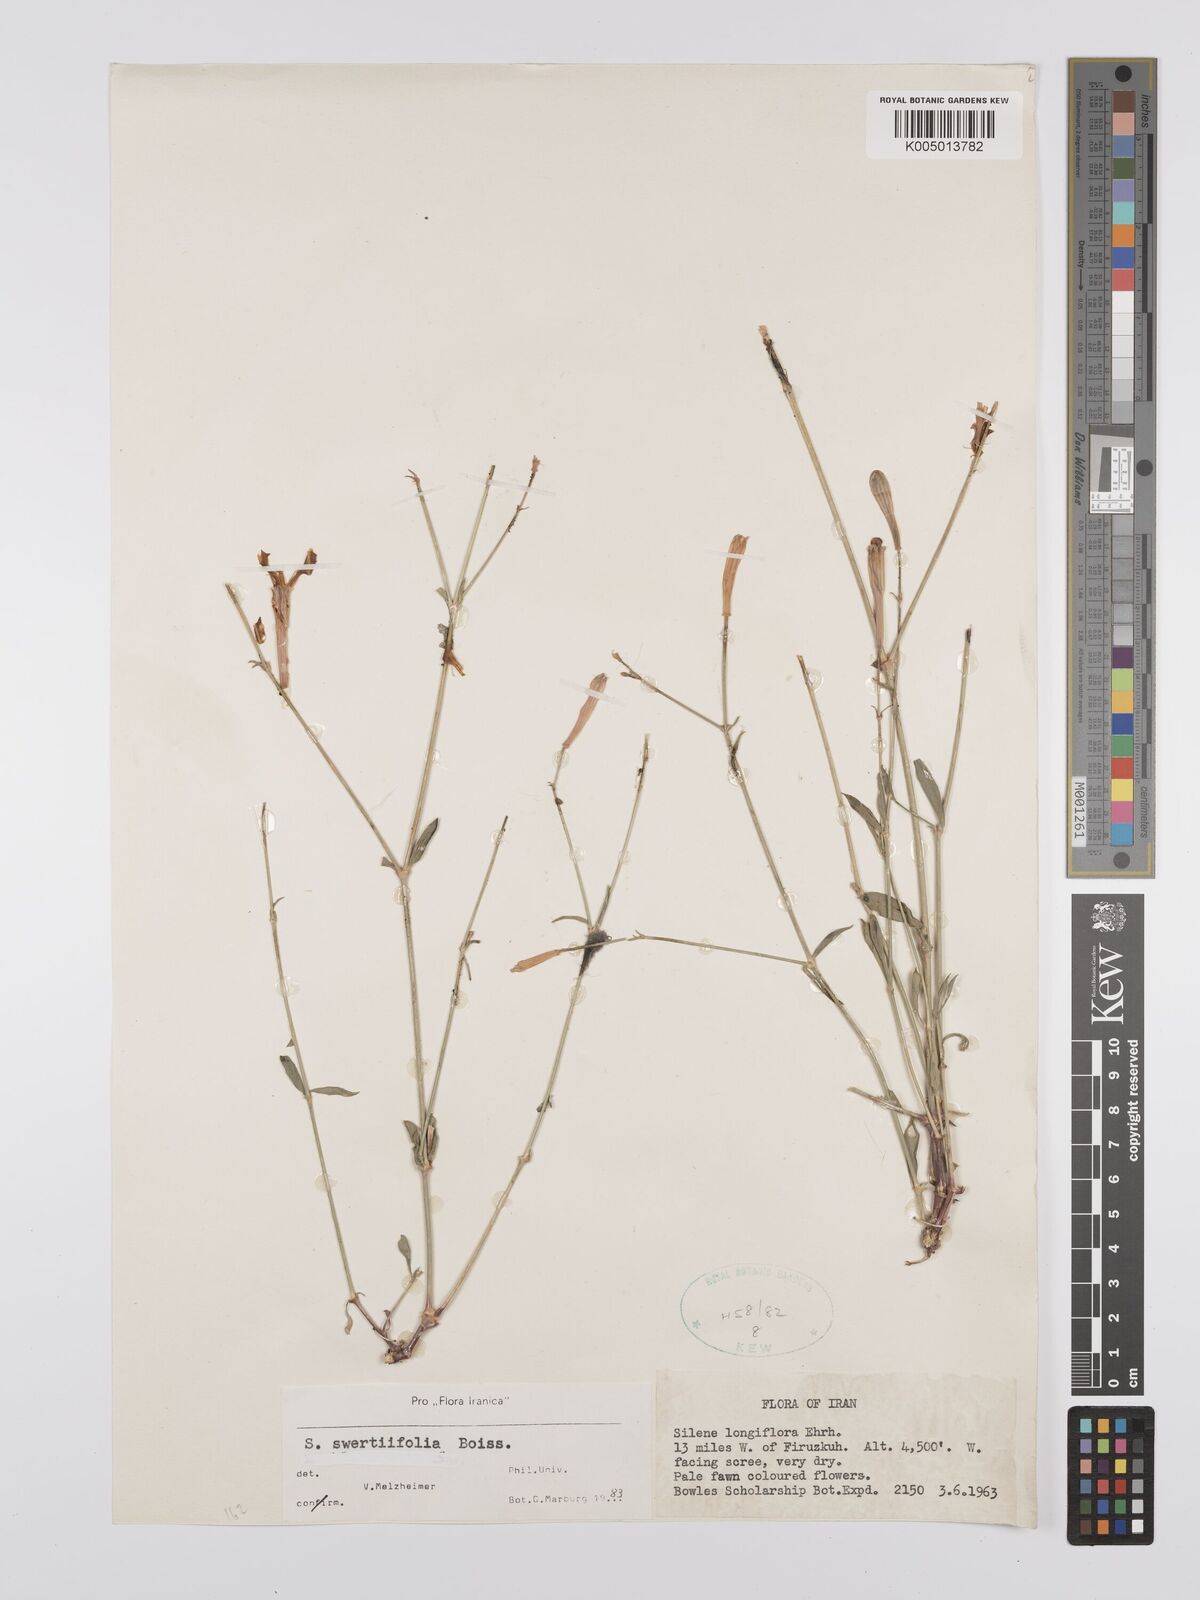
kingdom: Plantae
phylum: Tracheophyta
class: Magnoliopsida
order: Caryophyllales
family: Caryophyllaceae
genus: Silene
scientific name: Silene swertiifolia
